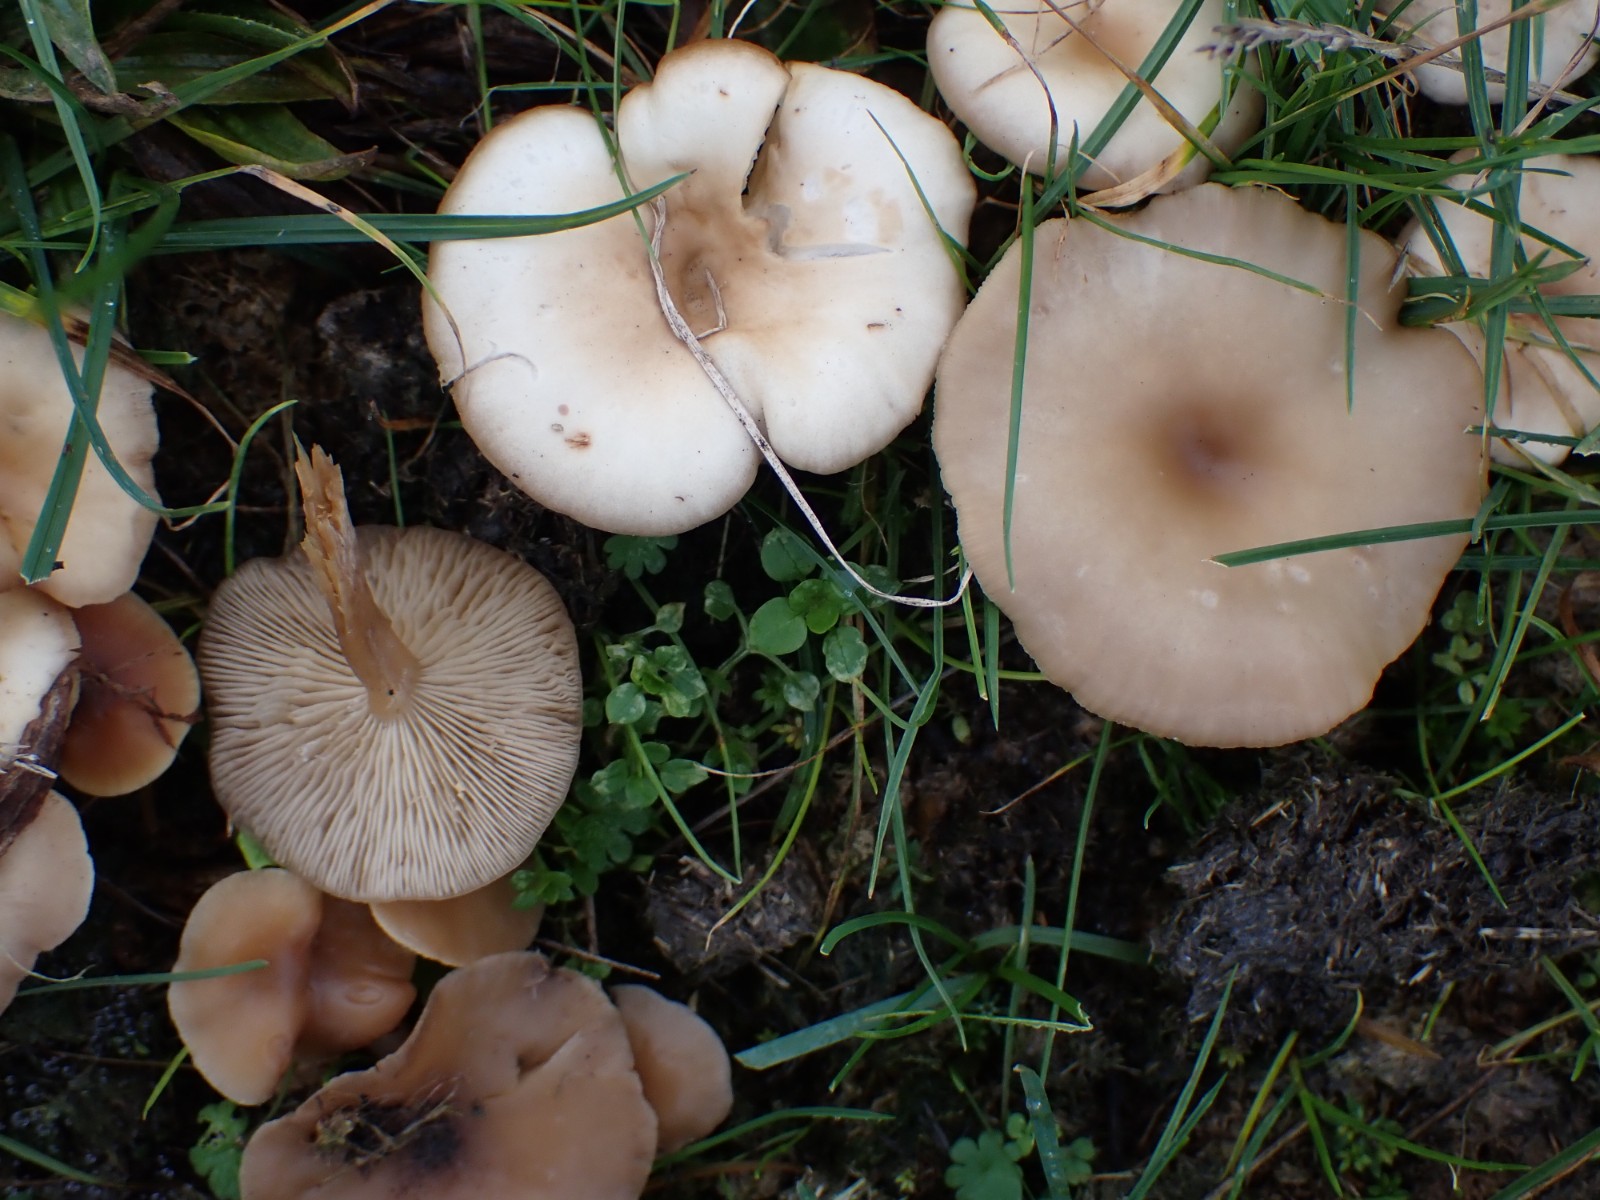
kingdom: Fungi
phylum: Basidiomycota
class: Agaricomycetes
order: Agaricales
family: Tricholomataceae
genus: Clitocybe
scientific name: Clitocybe
